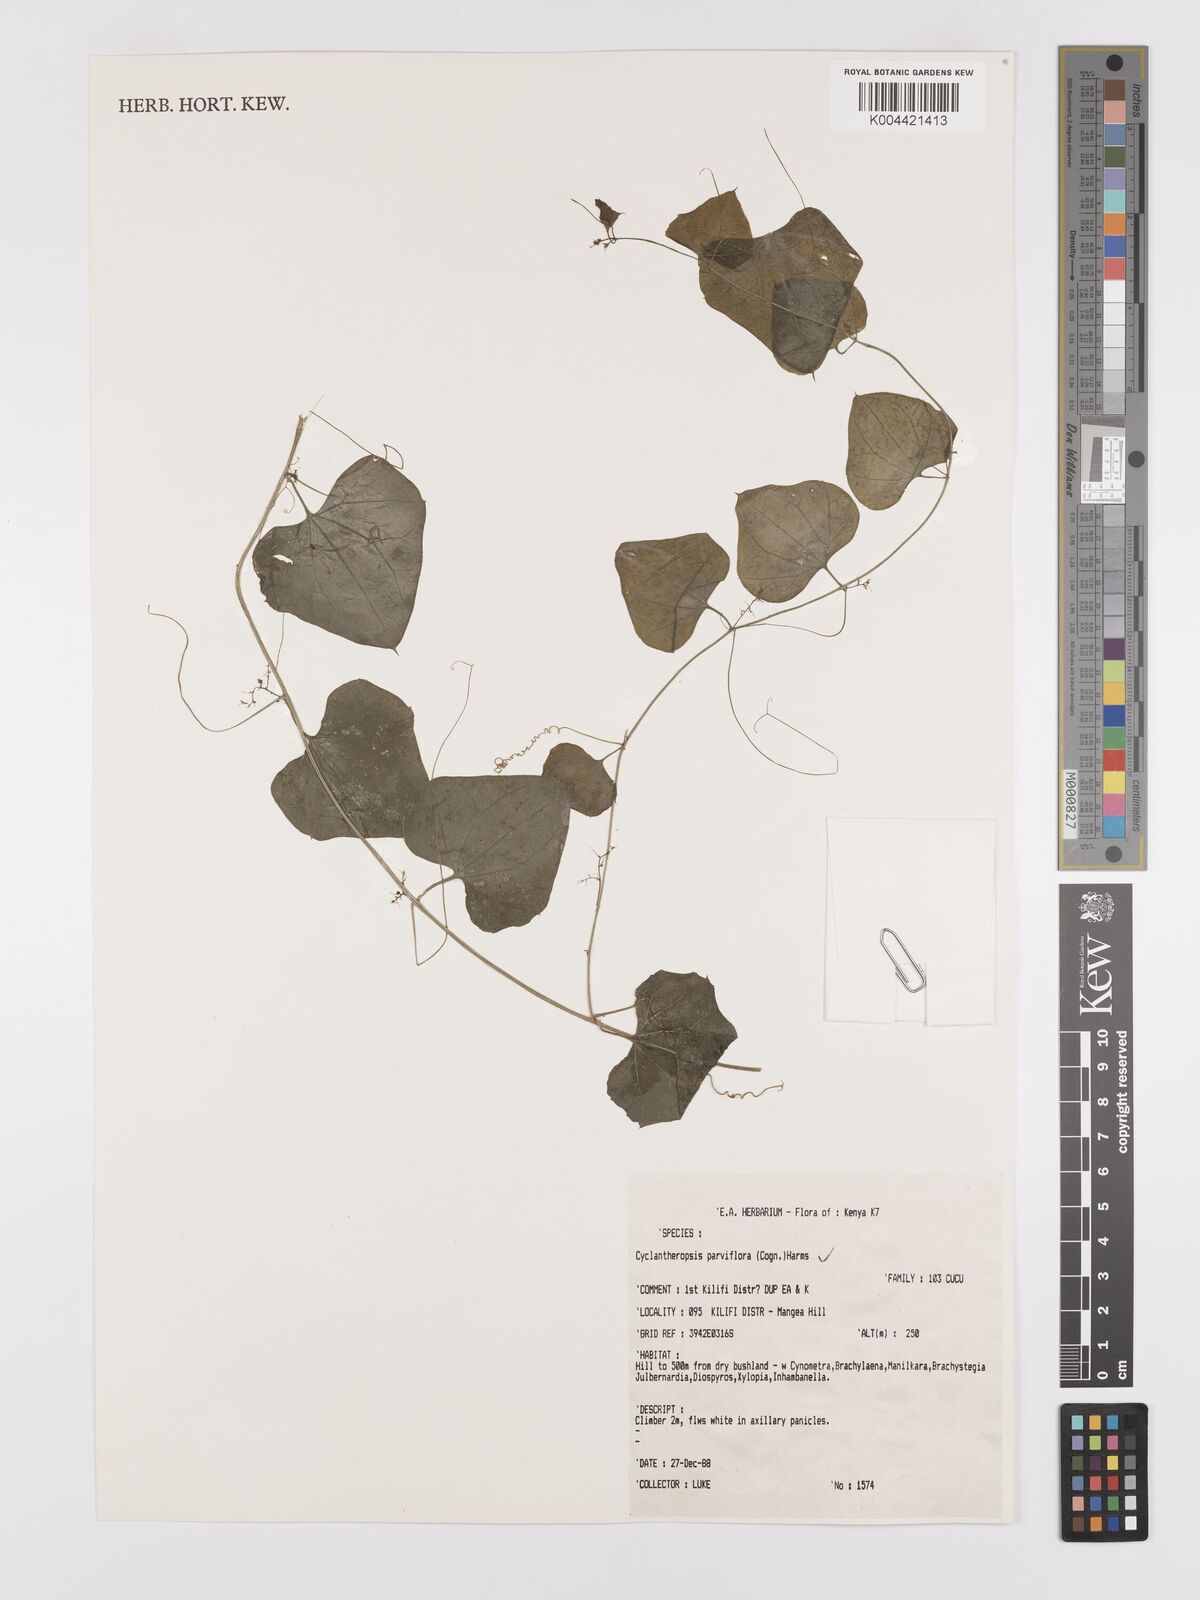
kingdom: Plantae
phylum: Tracheophyta
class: Magnoliopsida
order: Cucurbitales
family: Cucurbitaceae
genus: Cyclantheropsis
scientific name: Cyclantheropsis parviflora
